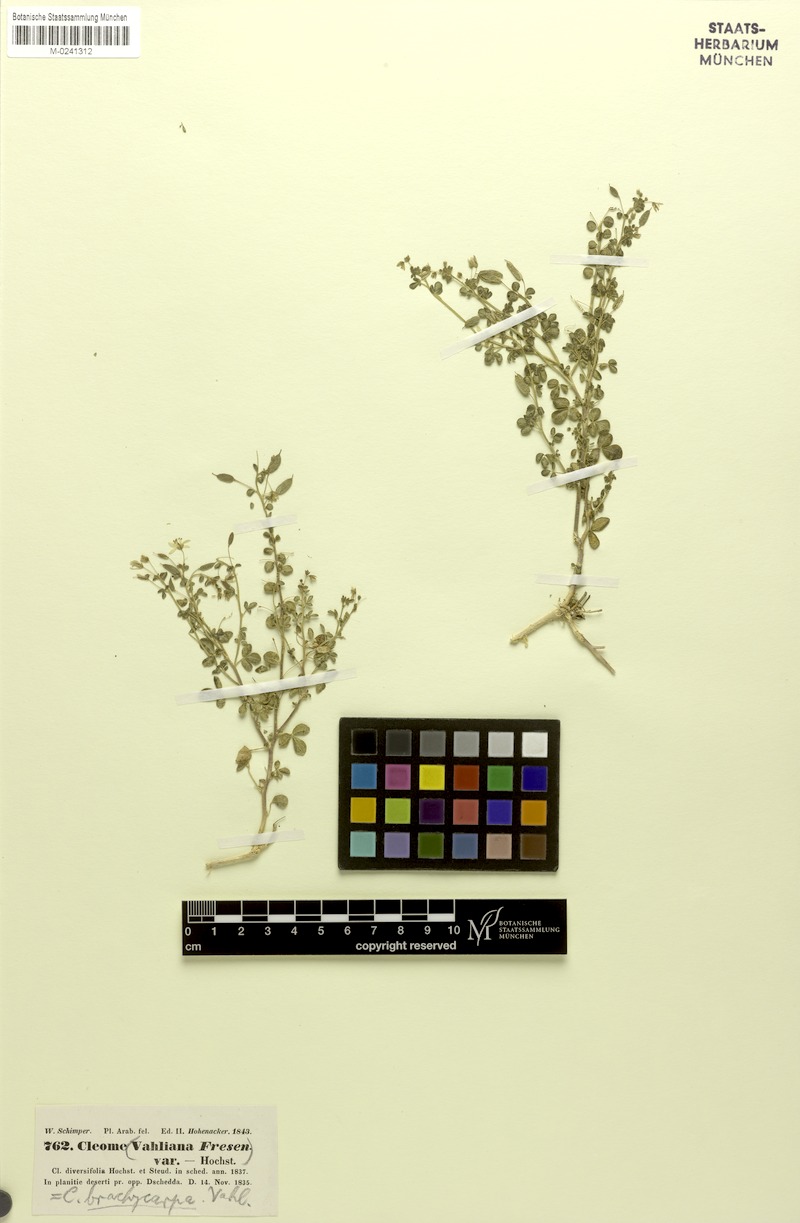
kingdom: Plantae
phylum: Tracheophyta
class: Magnoliopsida
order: Brassicales
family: Cleomaceae
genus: Stylidocleome
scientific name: Stylidocleome brachycarpa
